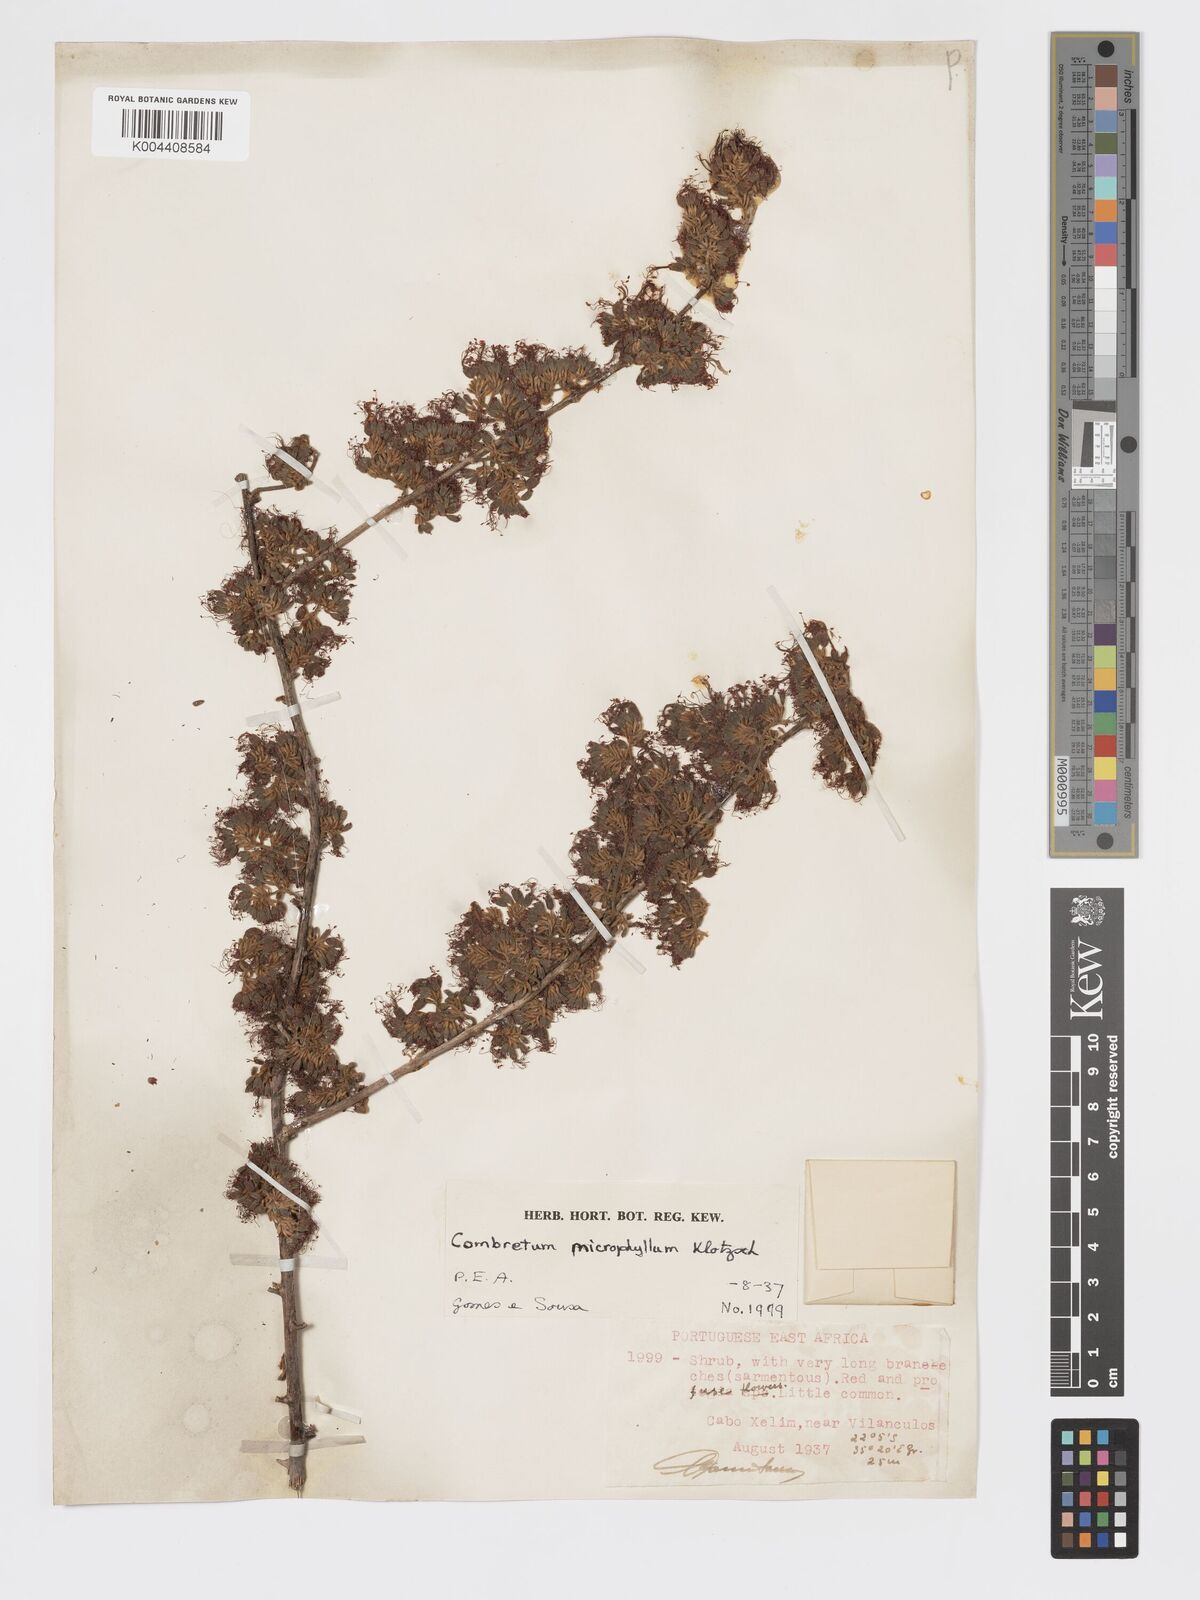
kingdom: Plantae
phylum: Tracheophyta
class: Magnoliopsida
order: Myrtales
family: Combretaceae
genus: Combretum
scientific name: Combretum microphyllum
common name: Burningbush
